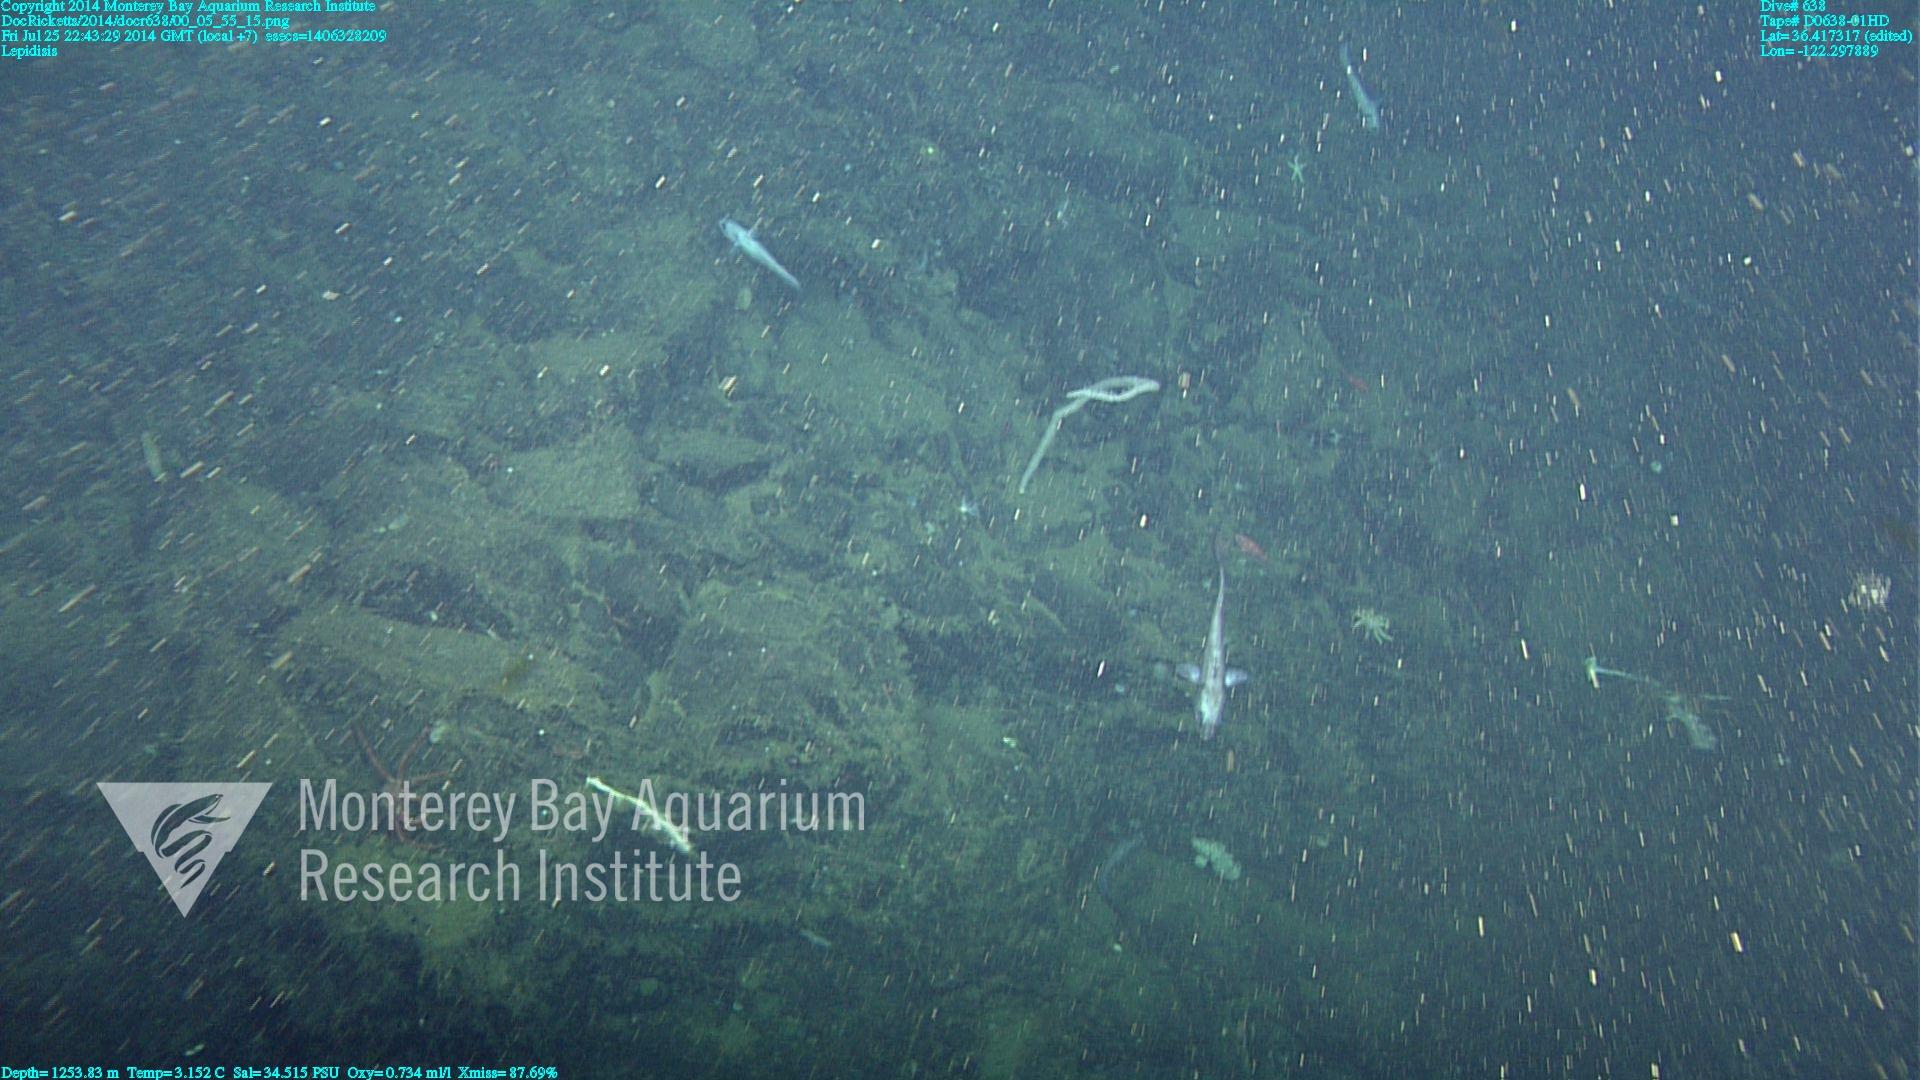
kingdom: Animalia
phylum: Cnidaria
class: Anthozoa
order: Scleralcyonacea
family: Keratoisididae
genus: Lepidisis
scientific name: Lepidisis
